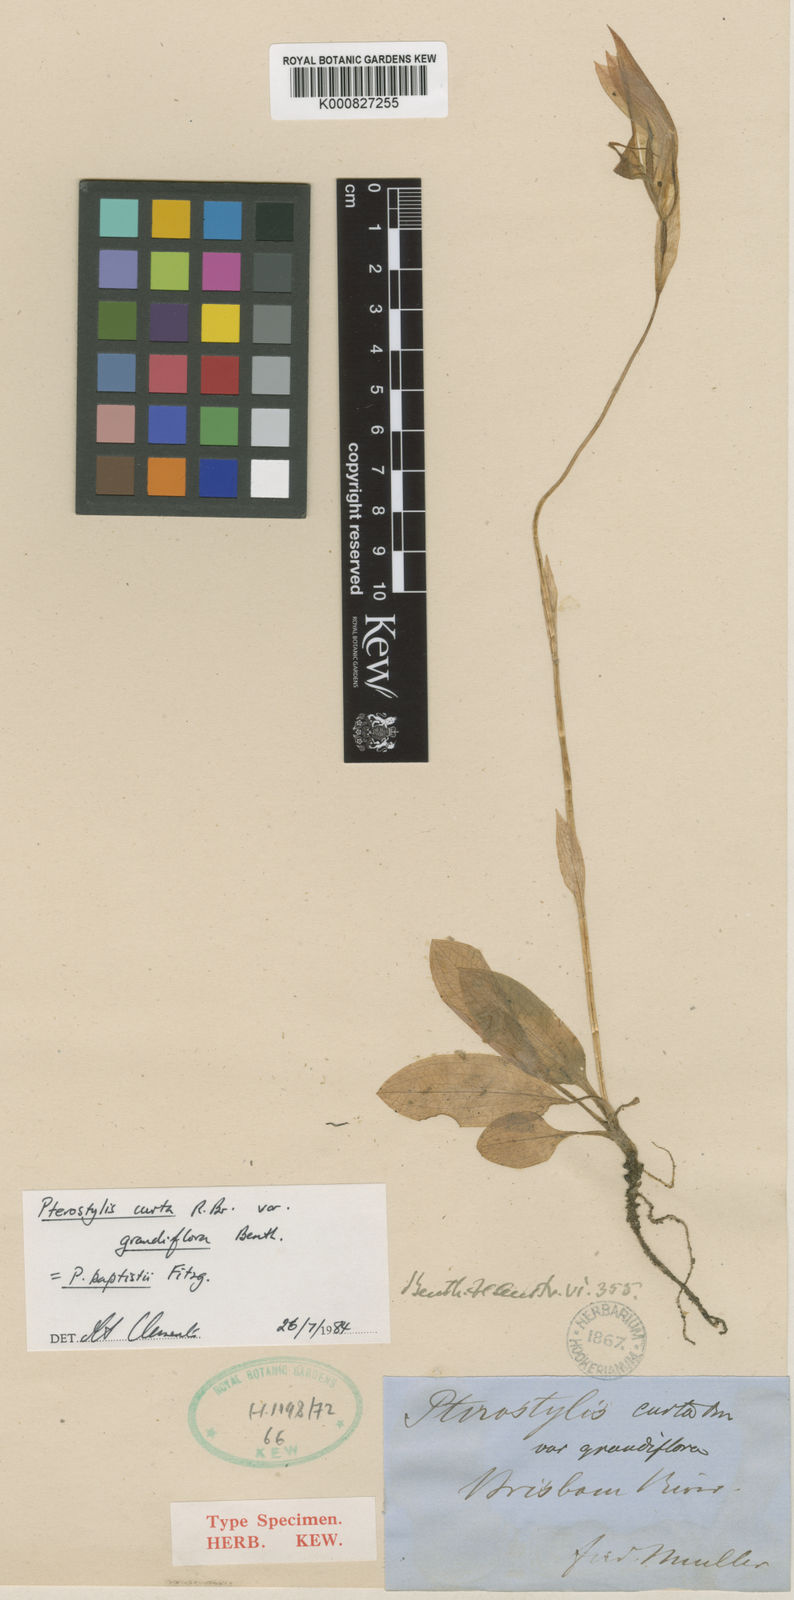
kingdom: Plantae
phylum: Tracheophyta
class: Liliopsida
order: Asparagales
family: Orchidaceae
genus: Pterostylis
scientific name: Pterostylis curta
